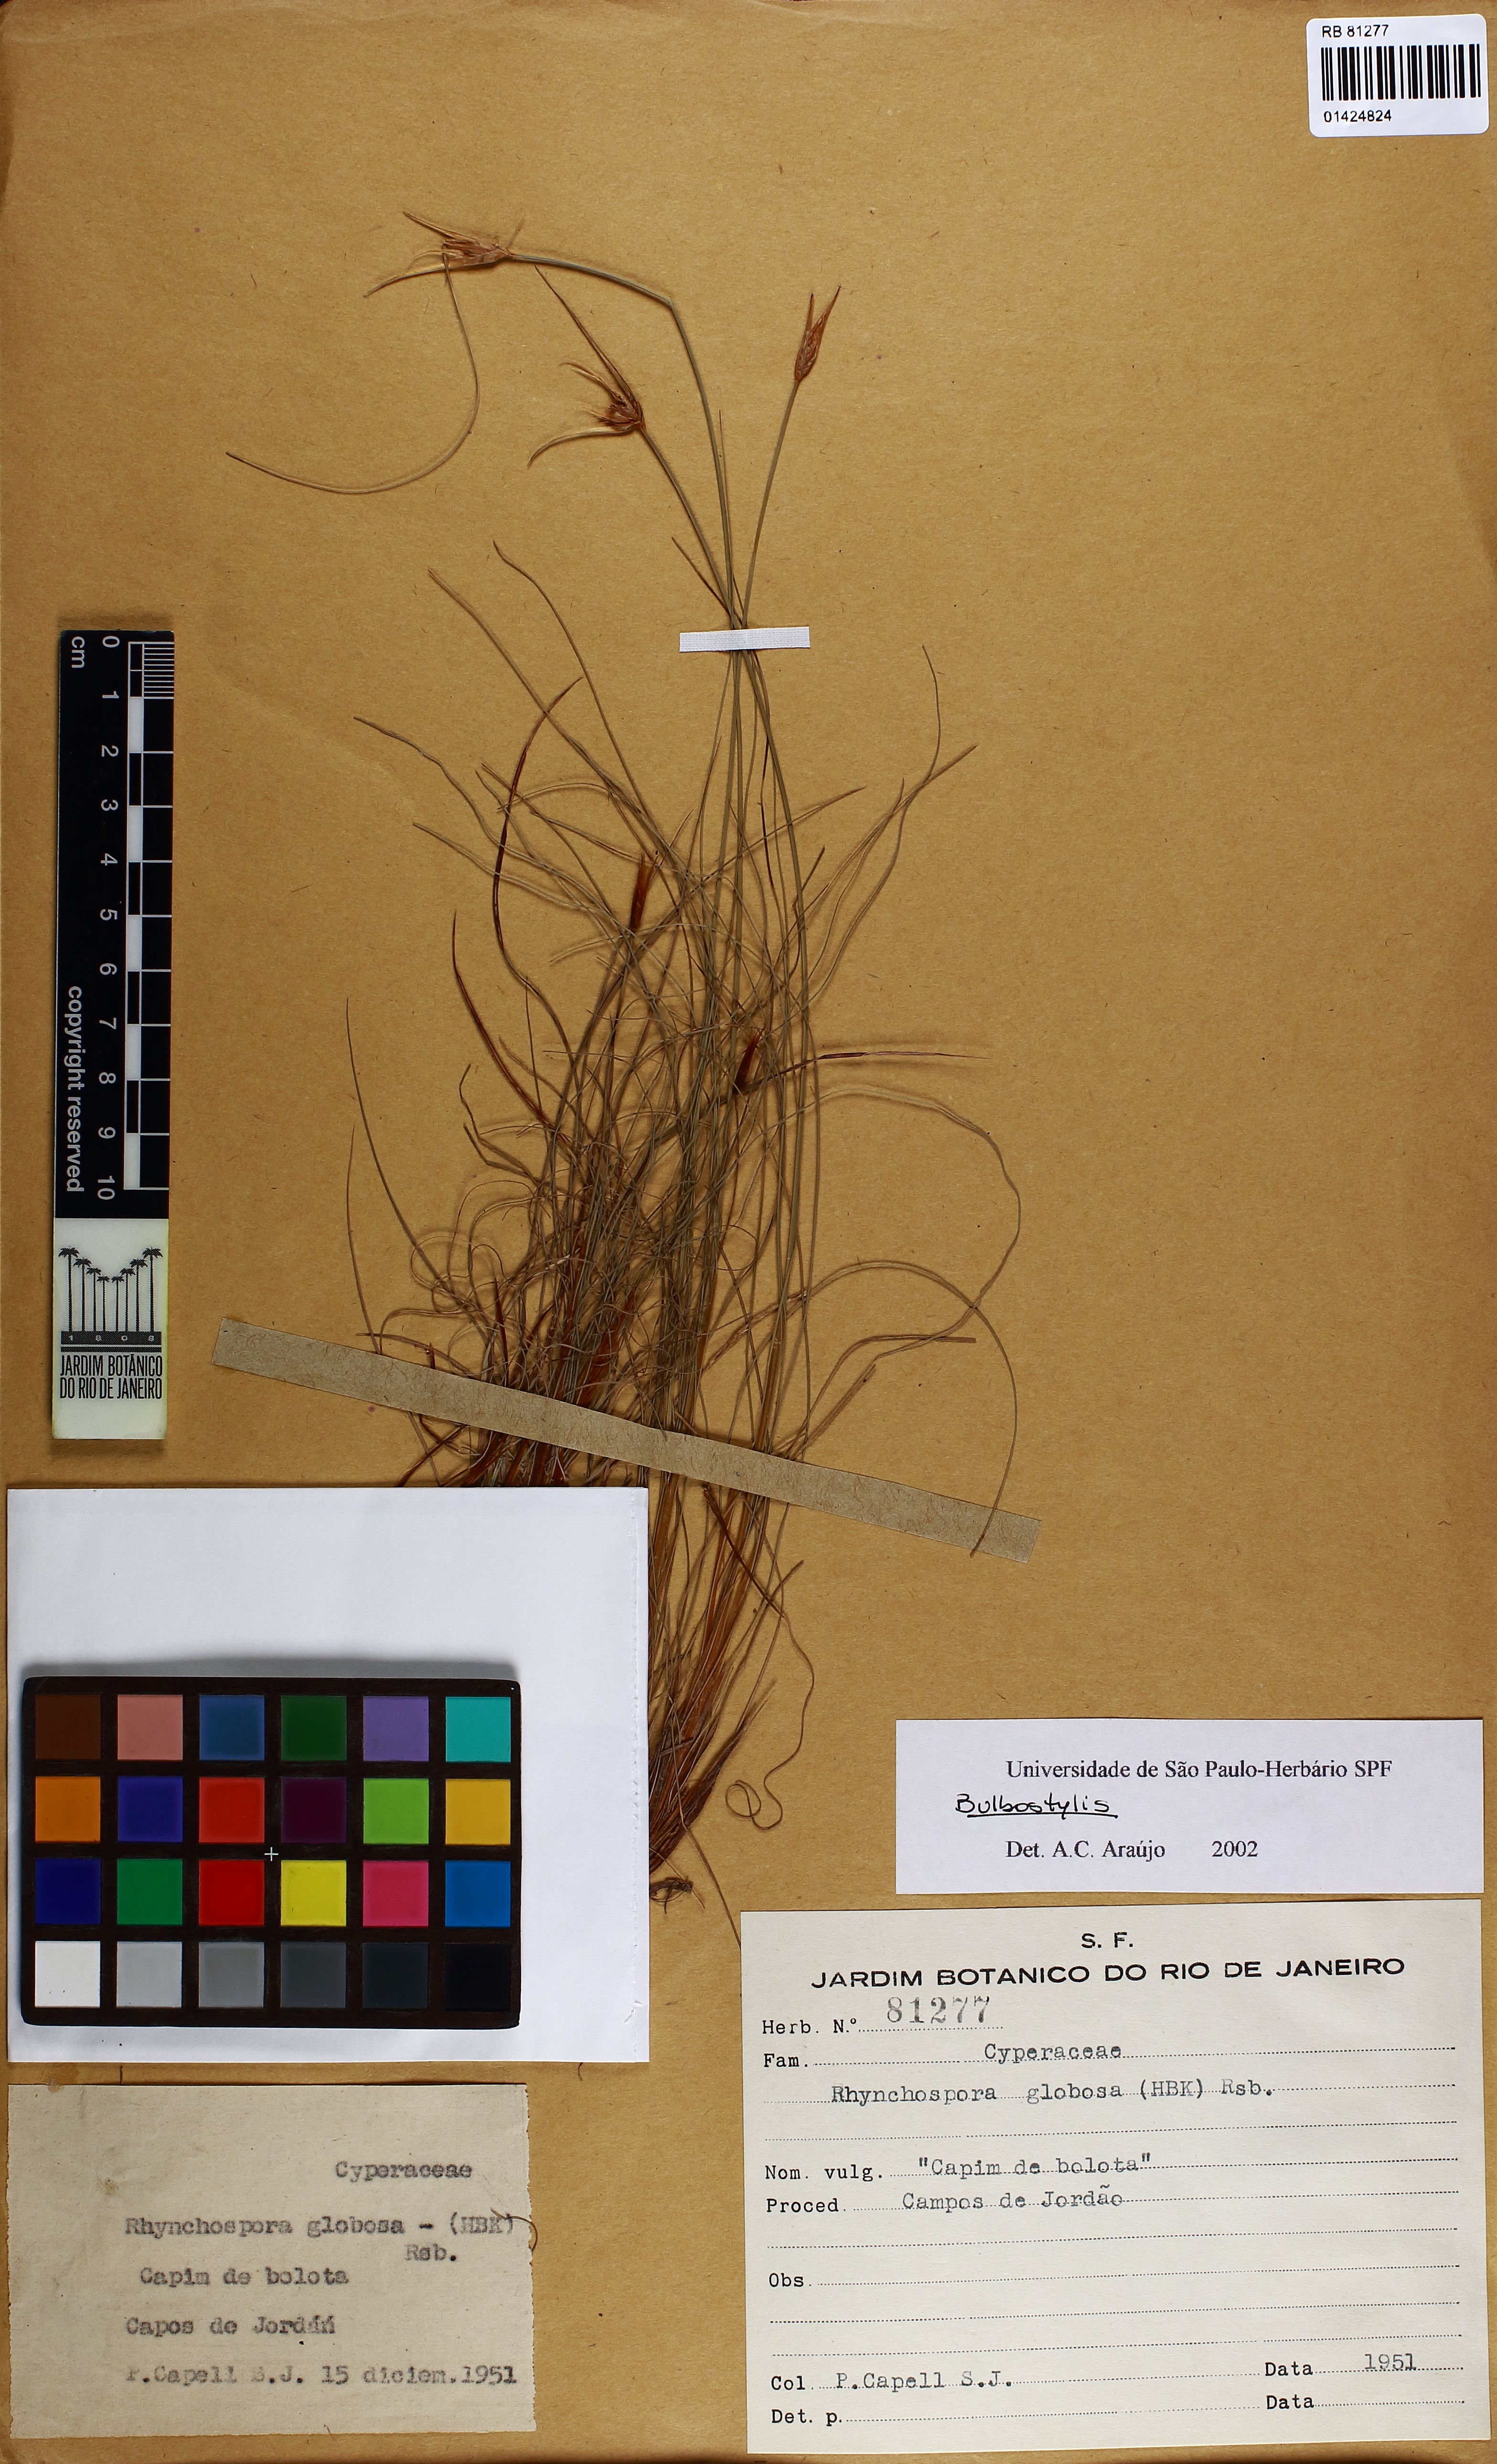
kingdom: Plantae
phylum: Tracheophyta
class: Liliopsida
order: Poales
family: Cyperaceae
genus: Bulbostylis
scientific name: Bulbostylis
